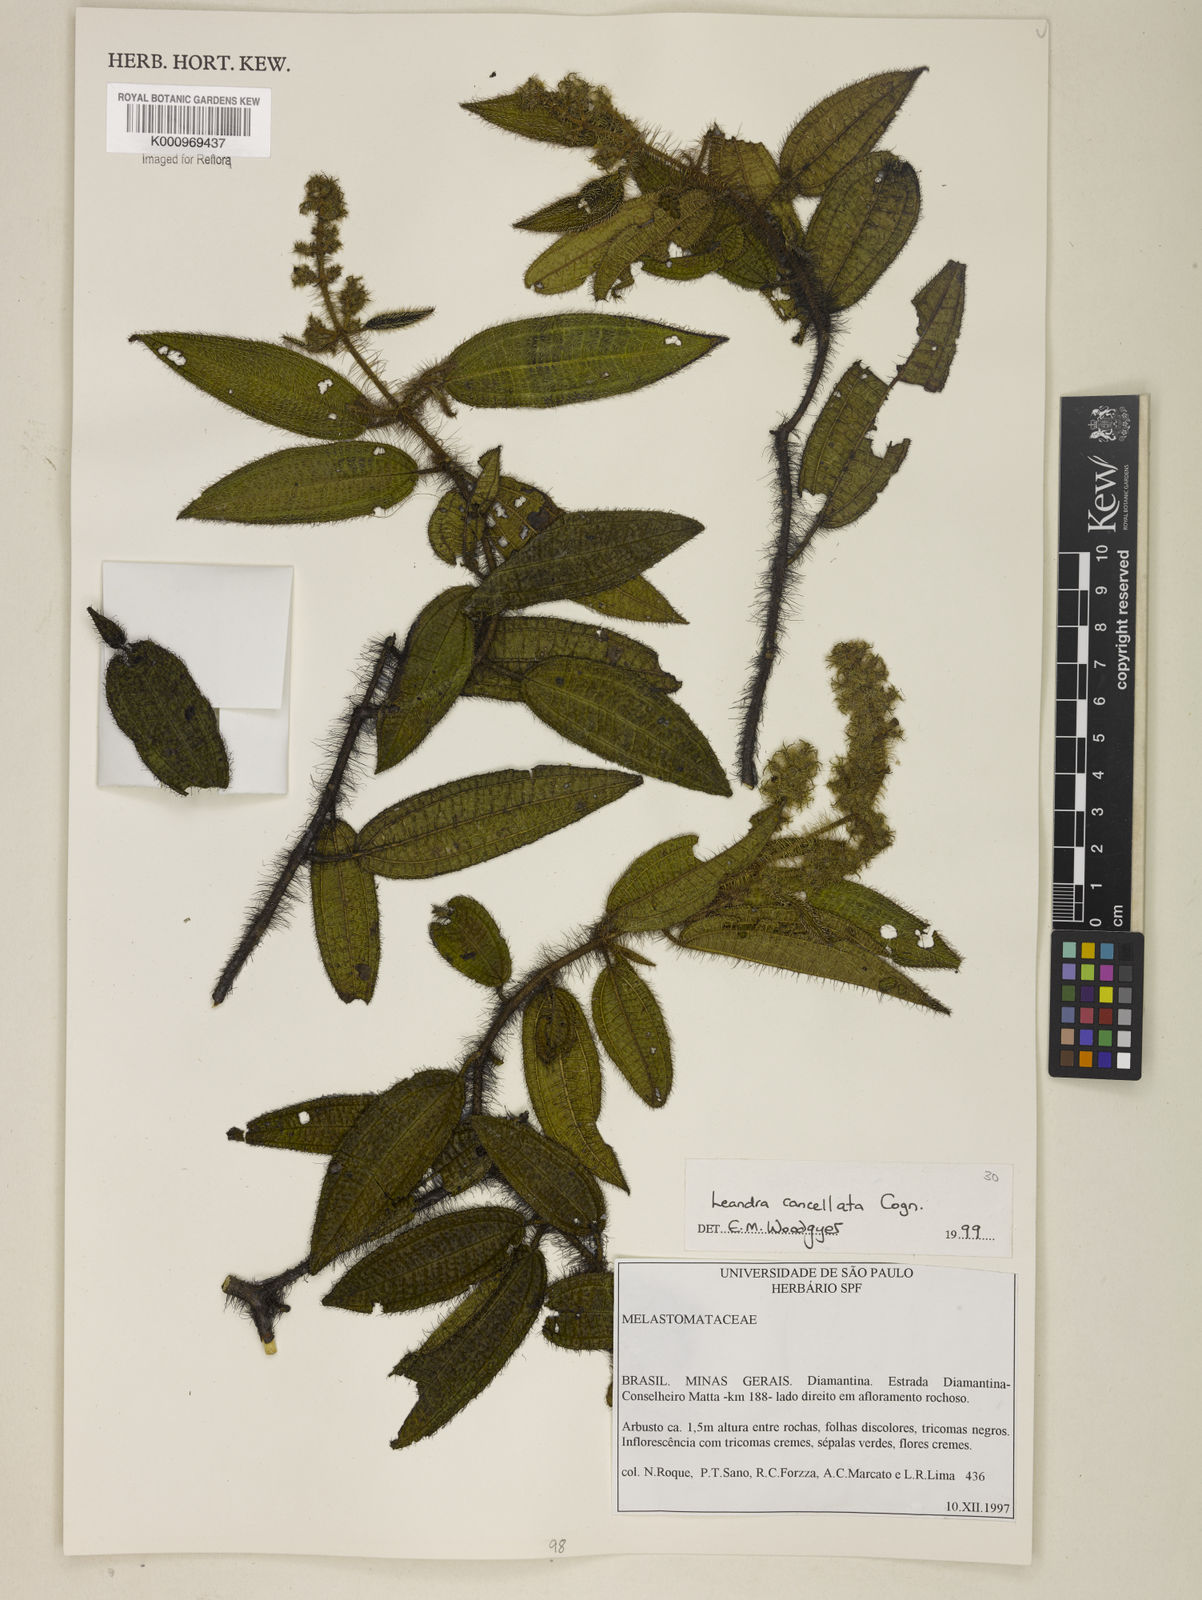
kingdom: Plantae
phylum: Tracheophyta
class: Magnoliopsida
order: Myrtales
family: Melastomataceae
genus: Miconia
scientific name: Miconia cancellata
